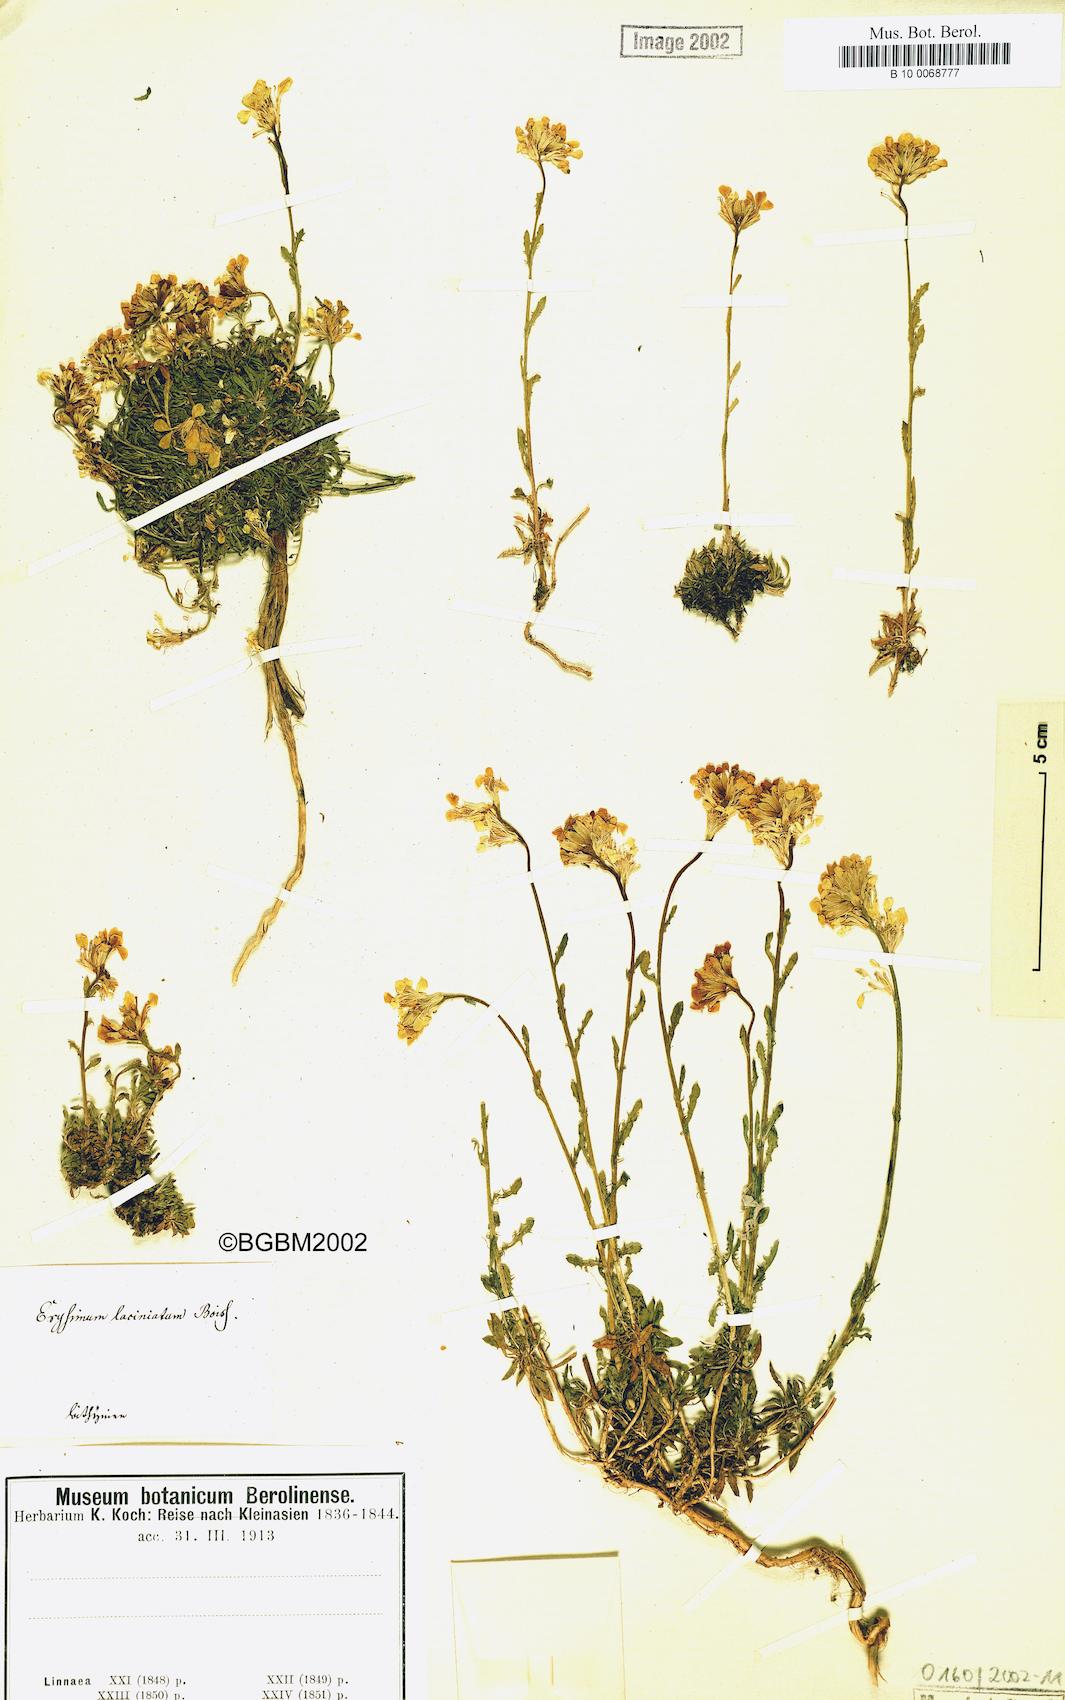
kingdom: Plantae
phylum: Tracheophyta
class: Magnoliopsida
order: Brassicales
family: Brassicaceae
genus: Erysimum
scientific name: Erysimum pulchellum
